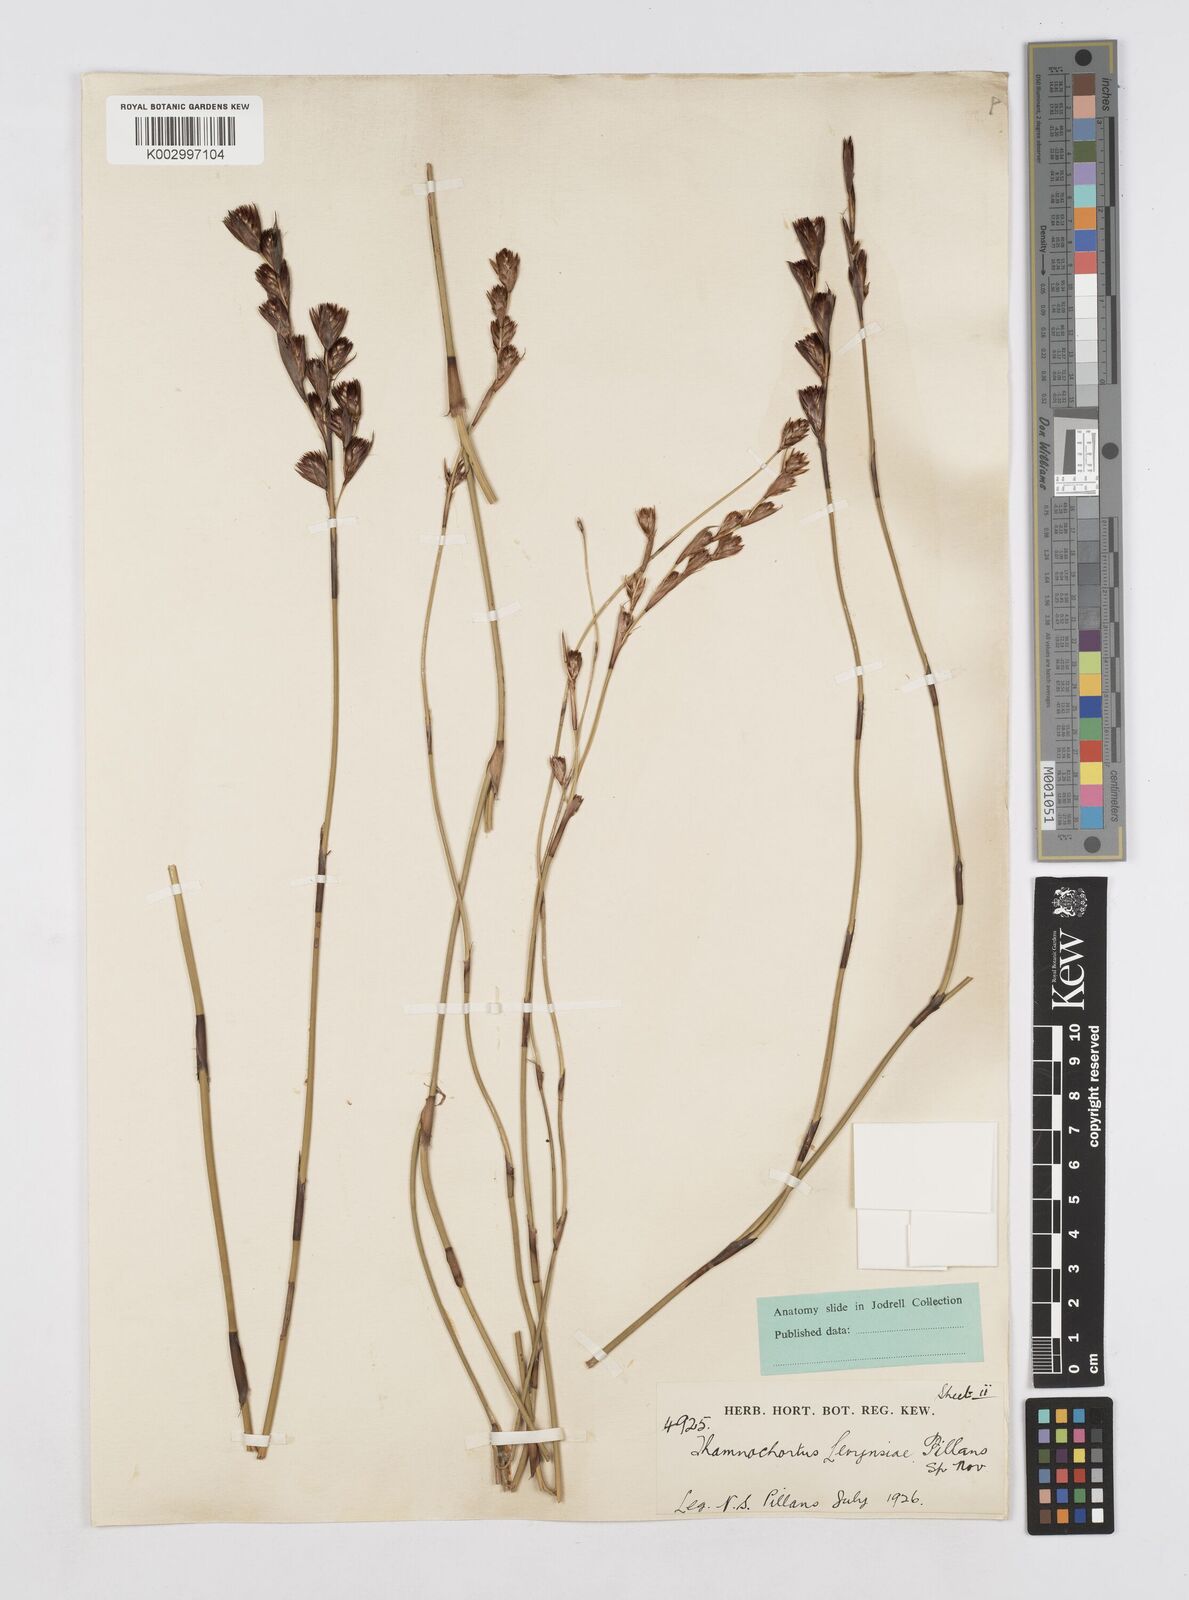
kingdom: Plantae
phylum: Tracheophyta
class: Liliopsida
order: Poales
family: Restionaceae
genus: Thamnochortus
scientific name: Thamnochortus levynsiae
